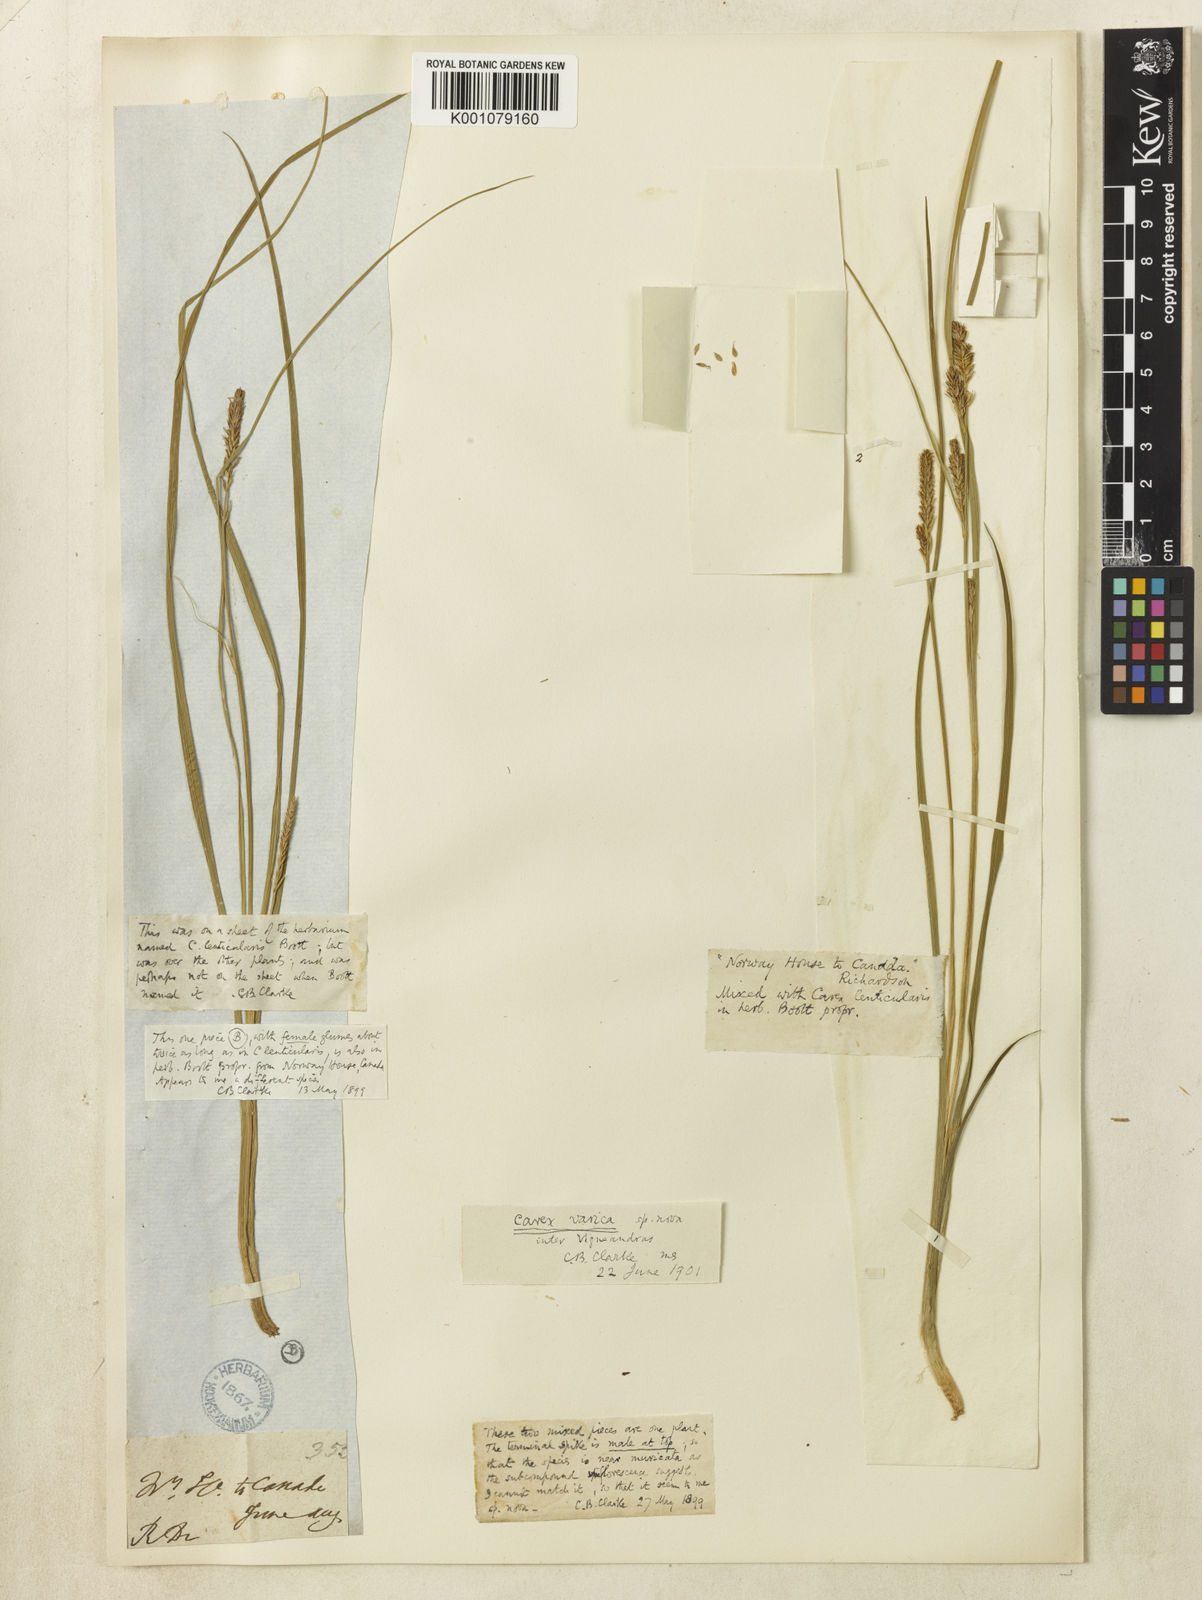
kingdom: Plantae
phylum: Tracheophyta
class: Liliopsida
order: Poales
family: Cyperaceae
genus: Carex
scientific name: Carex varica
